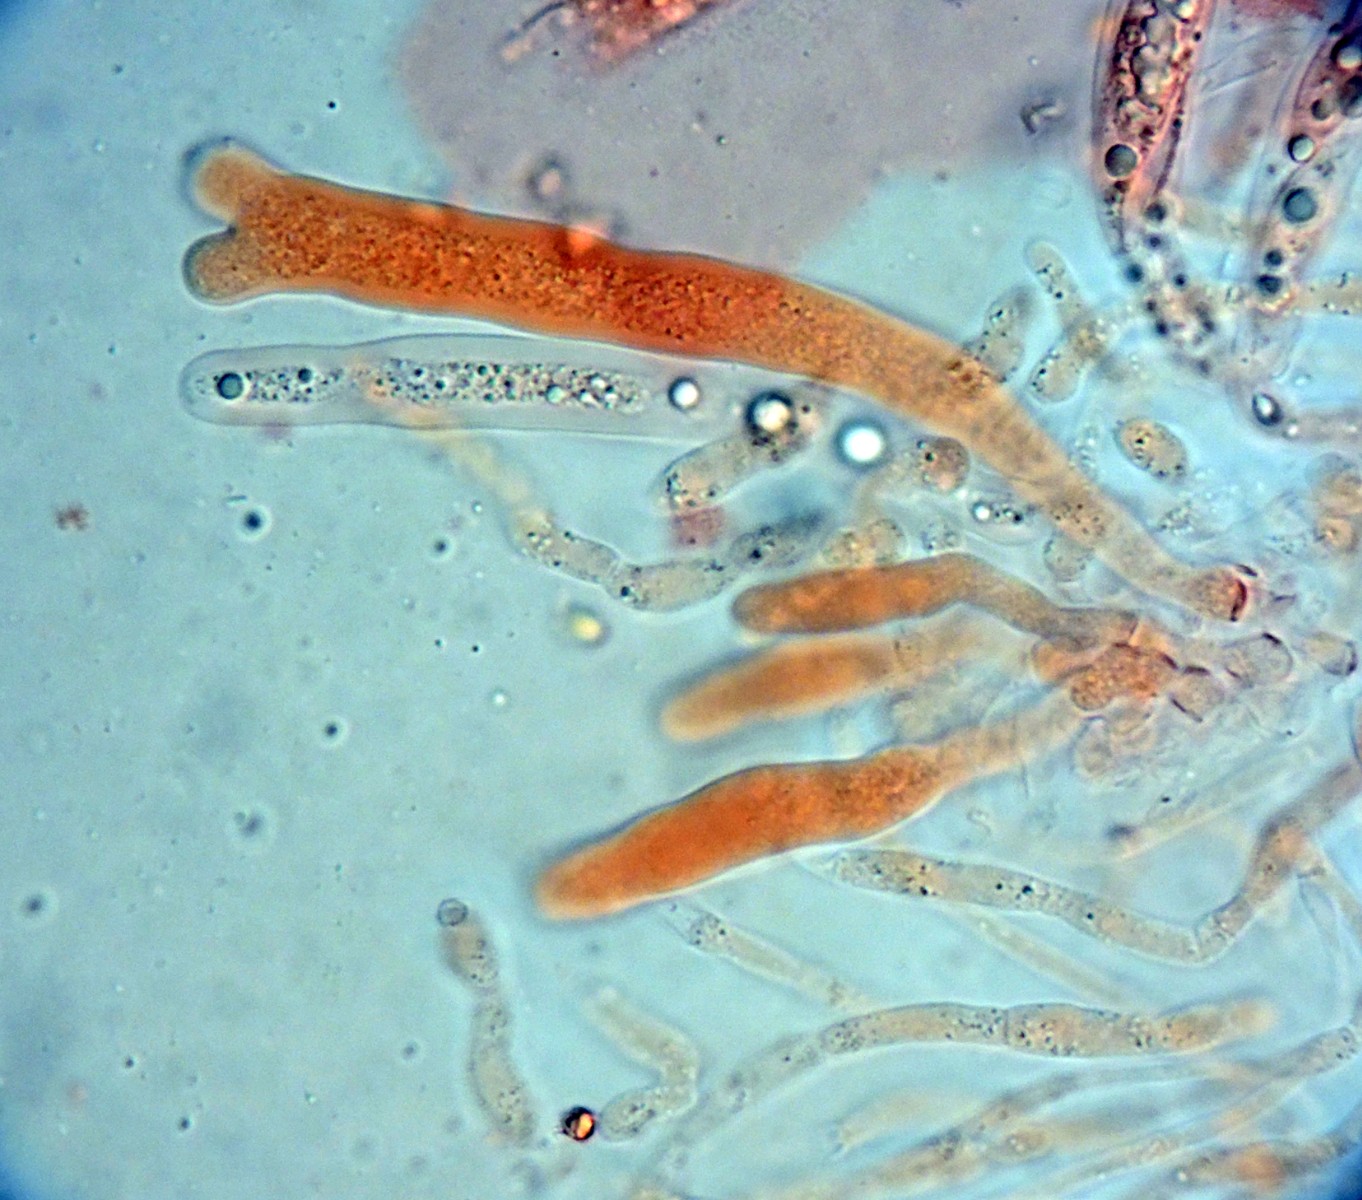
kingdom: Plantae
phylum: Bryophyta
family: Dothideomycetes
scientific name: Dothideomycetes
